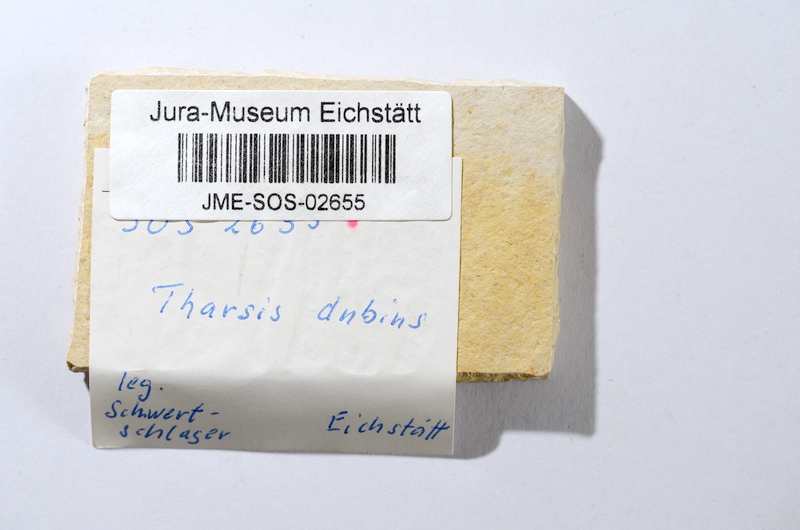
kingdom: Animalia
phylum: Chordata
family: Ascalaboidae
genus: Tharsis
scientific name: Tharsis dubius
